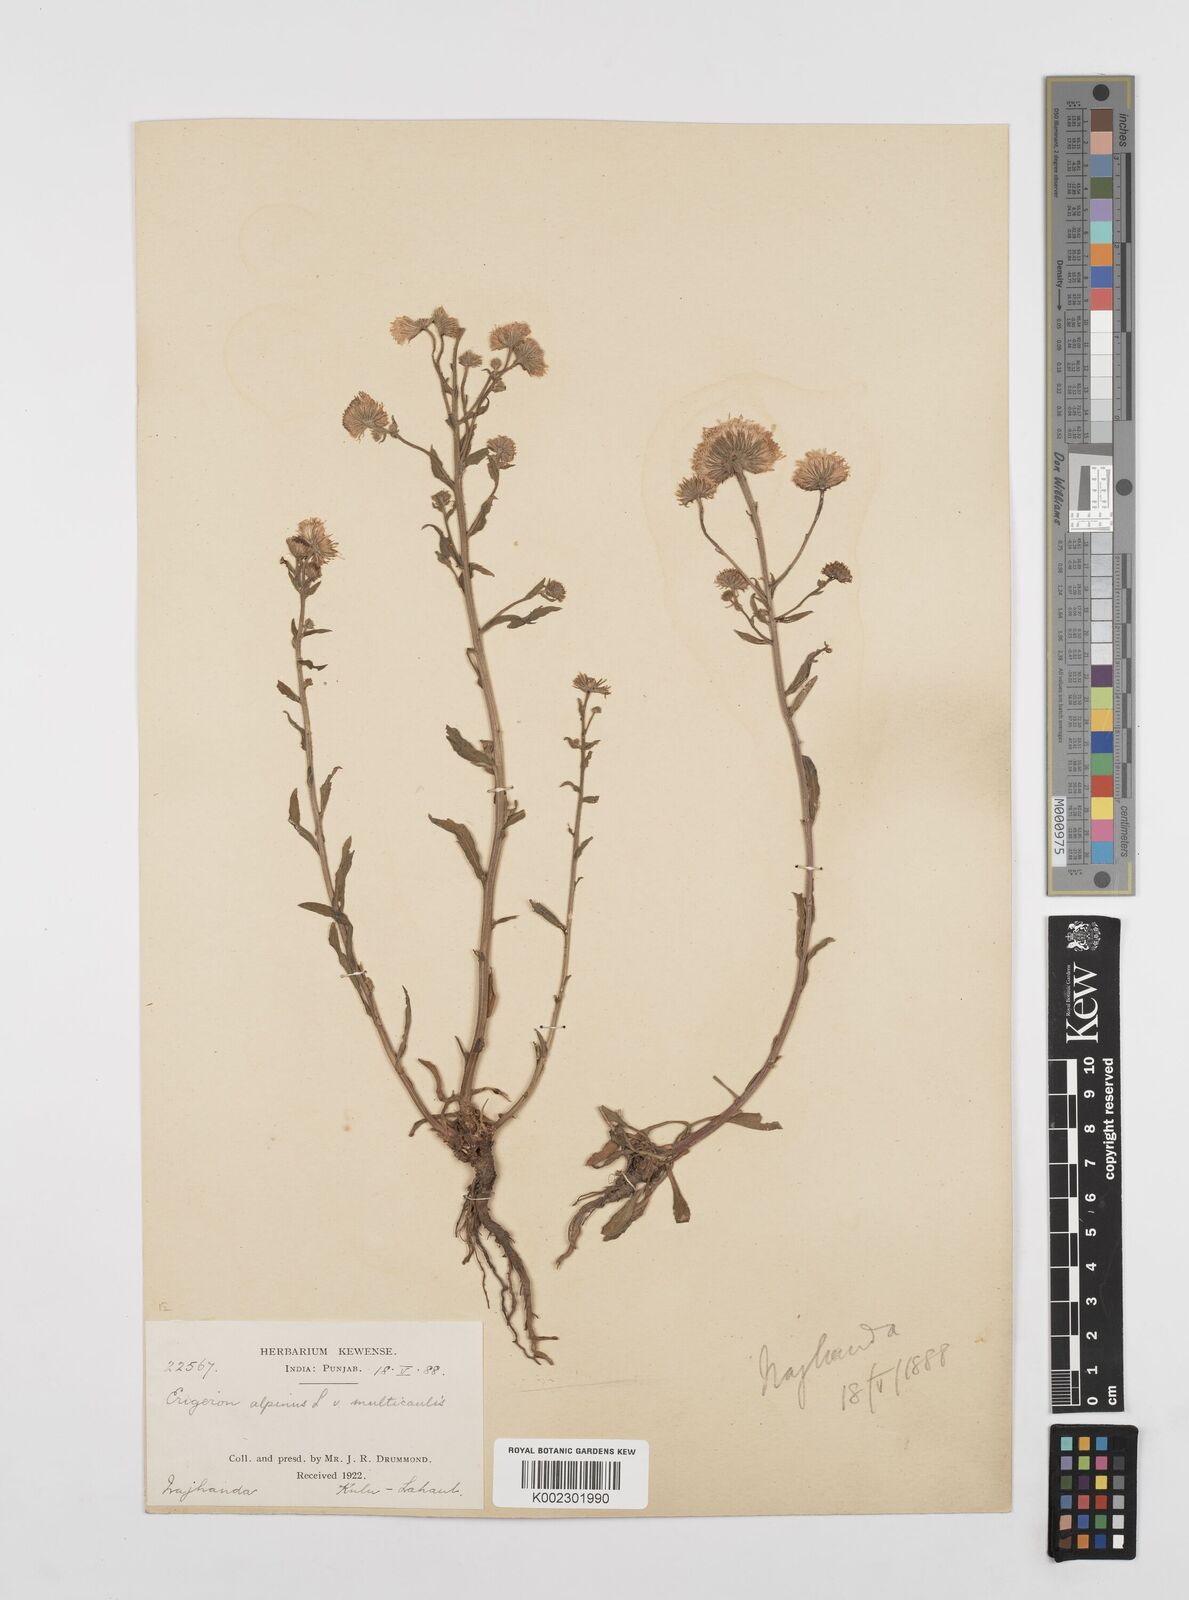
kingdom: Plantae
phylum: Tracheophyta
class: Magnoliopsida
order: Asterales
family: Asteraceae
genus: Erigeron
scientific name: Erigeron alpinus
